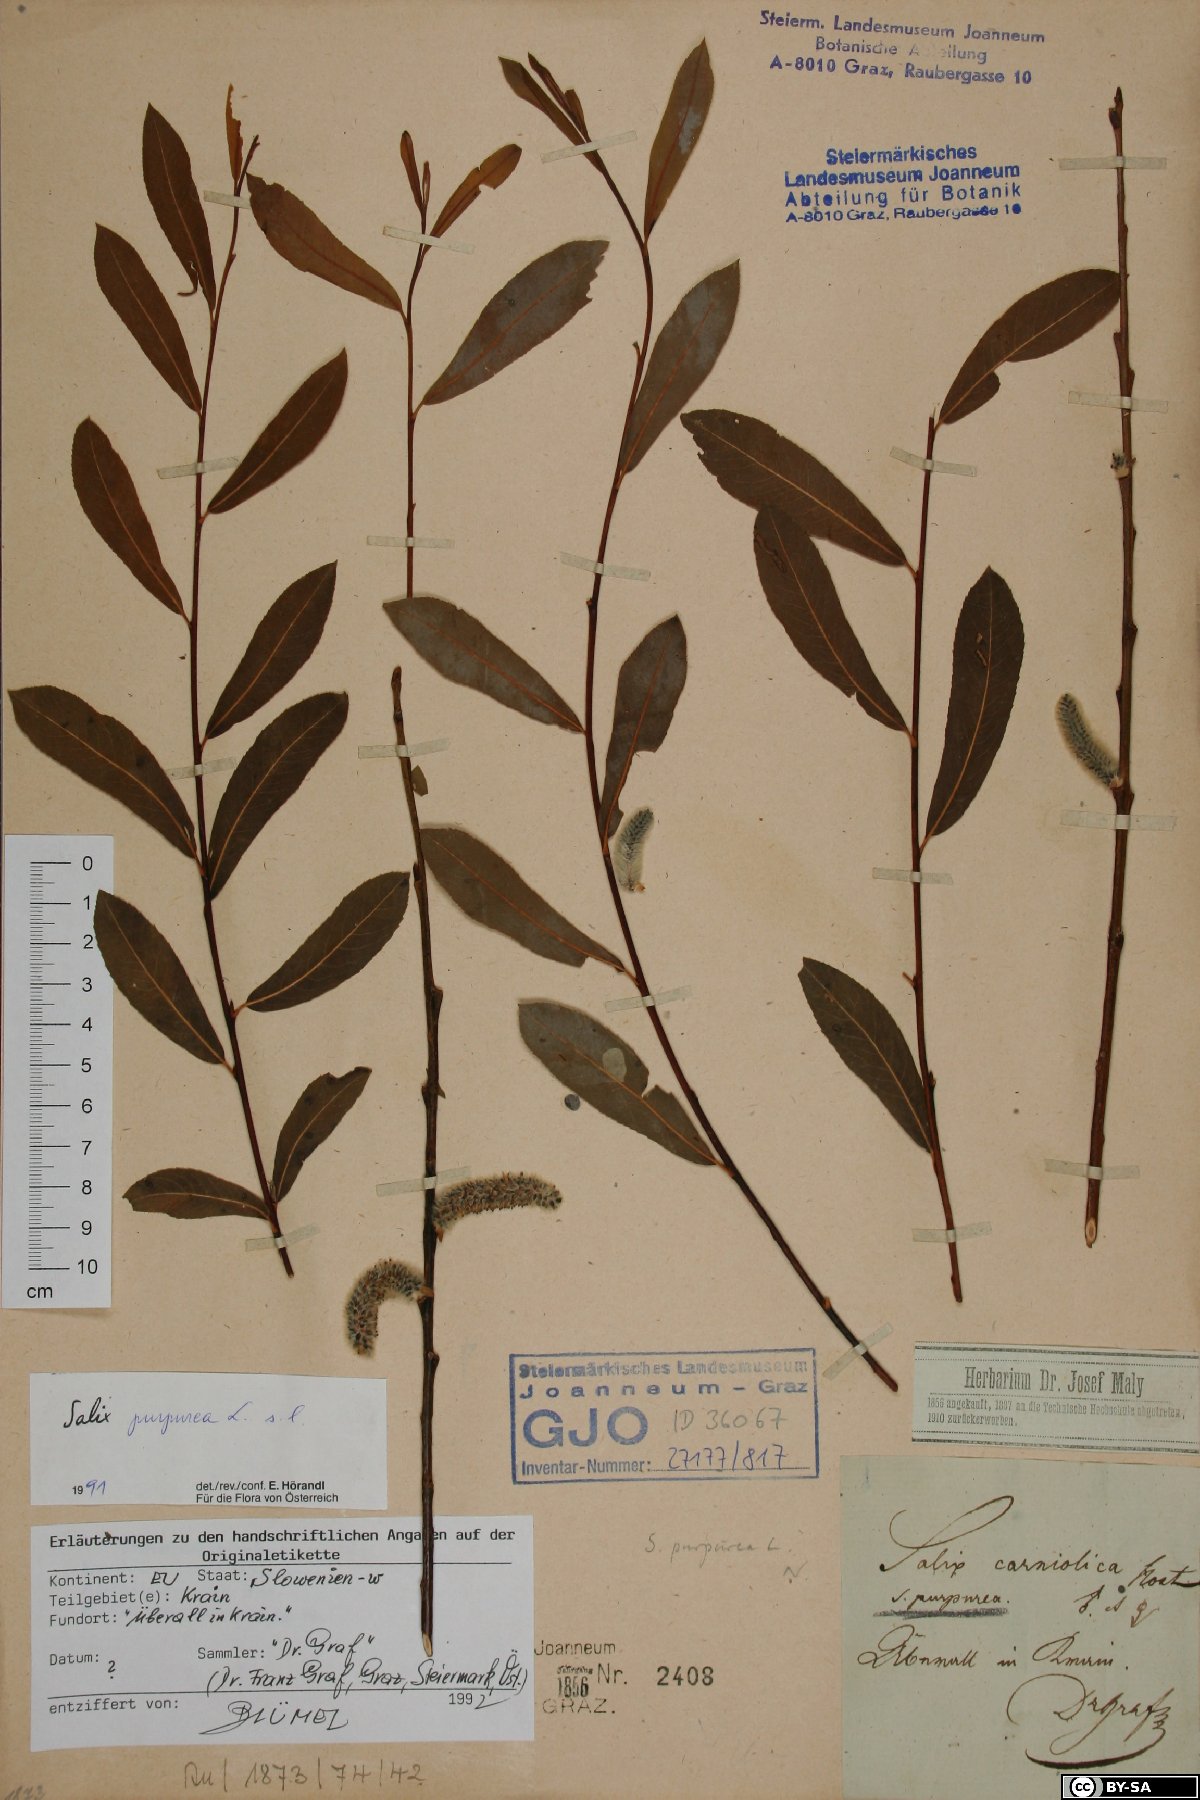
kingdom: Plantae
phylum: Tracheophyta
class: Magnoliopsida
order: Malpighiales
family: Salicaceae
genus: Salix
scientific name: Salix purpurea
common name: Purple willow
